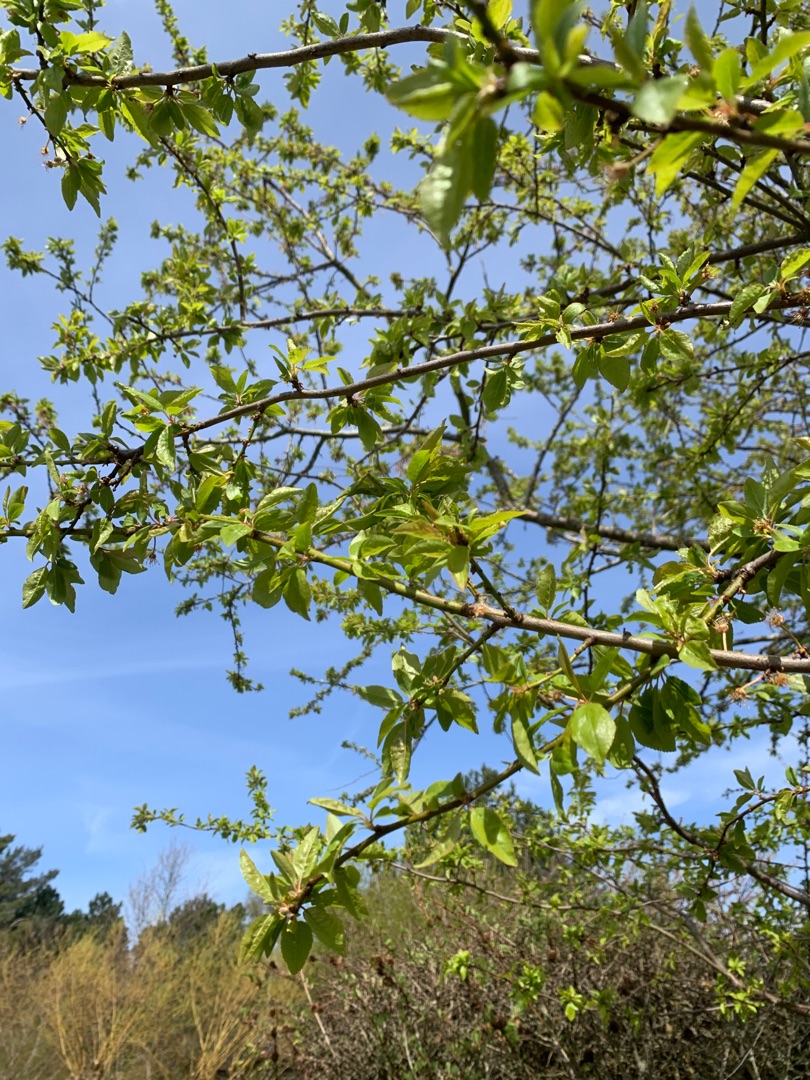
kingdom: Plantae
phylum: Tracheophyta
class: Magnoliopsida
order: Rosales
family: Rosaceae
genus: Prunus
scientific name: Prunus cerasifera
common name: Mirabel
